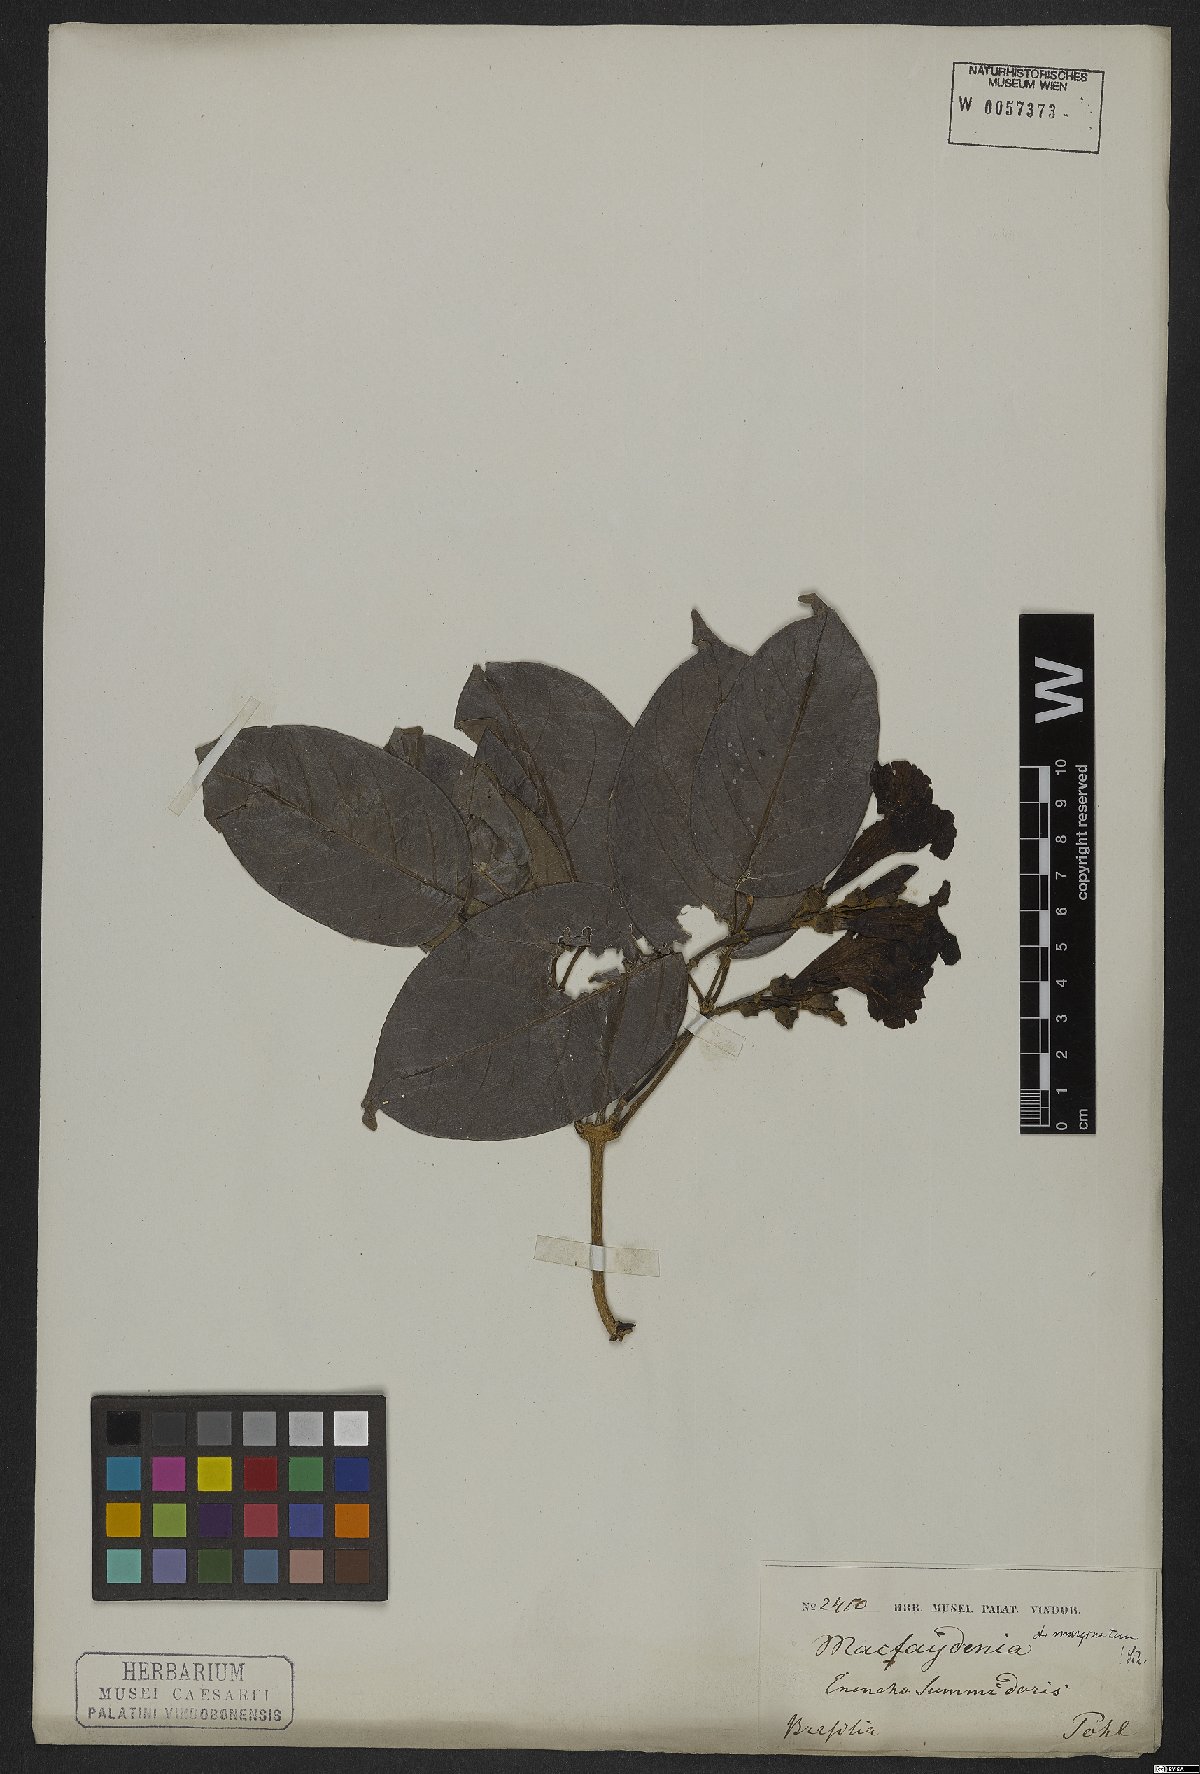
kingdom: Plantae
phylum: Tracheophyta
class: Magnoliopsida
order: Lamiales
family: Bignoniaceae
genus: Adenocalymma
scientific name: Adenocalymma marginatum
